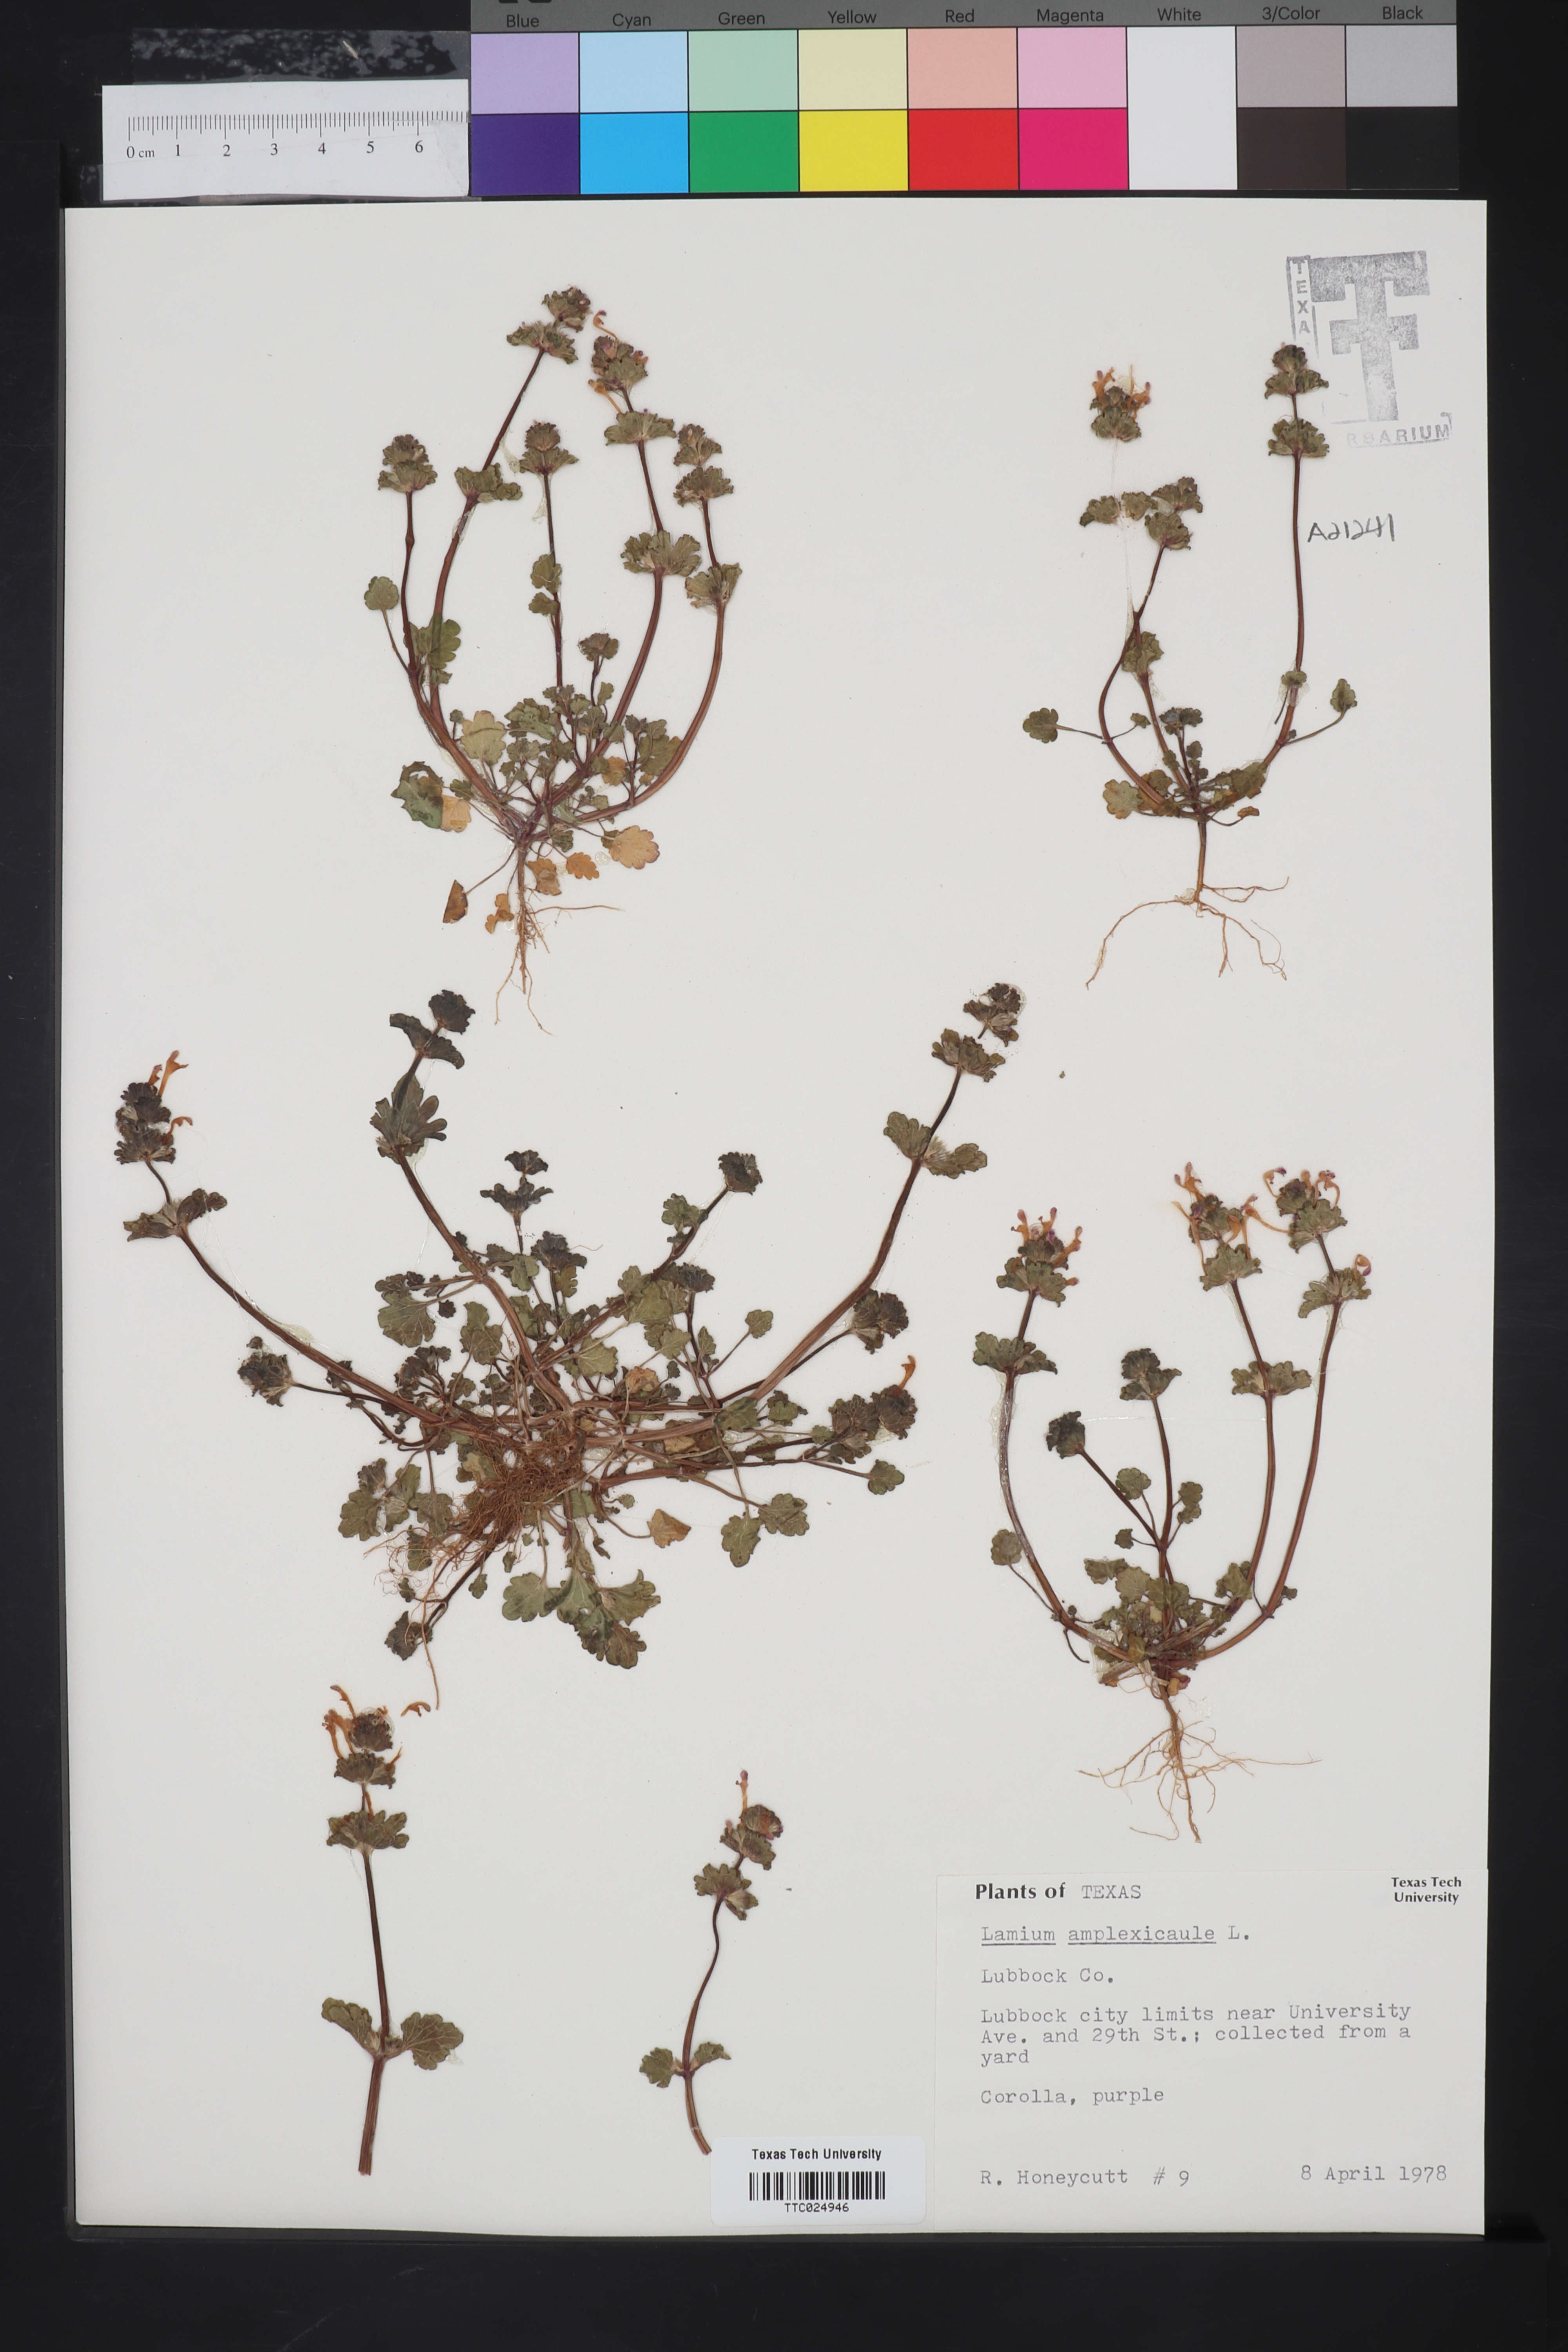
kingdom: Plantae
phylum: Tracheophyta
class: Magnoliopsida
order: Lamiales
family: Lamiaceae
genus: Lamium
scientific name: Lamium amplexicaule
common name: Henbit dead-nettle
